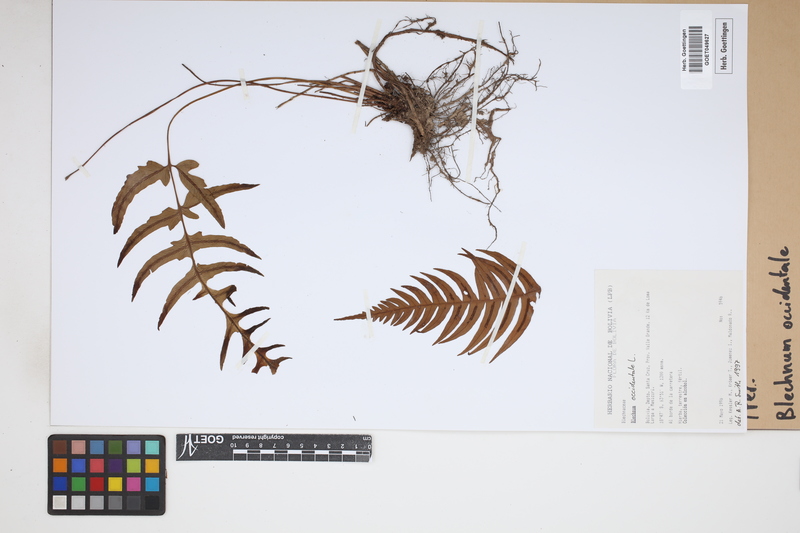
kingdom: Plantae
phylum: Tracheophyta
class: Polypodiopsida
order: Polypodiales
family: Blechnaceae
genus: Blechnum
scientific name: Blechnum occidentale
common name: Hammock fern
